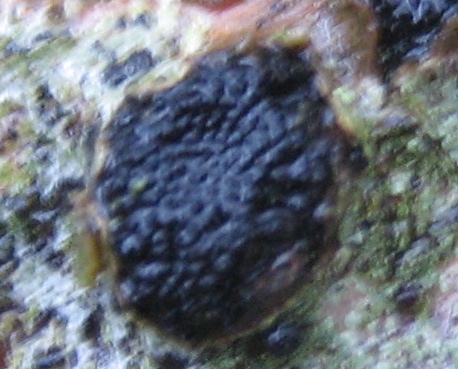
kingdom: Fungi
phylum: Ascomycota
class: Sordariomycetes
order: Xylariales
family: Diatrypaceae
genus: Eutypella
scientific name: Eutypella sorbi
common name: rønne-kulskorpe
